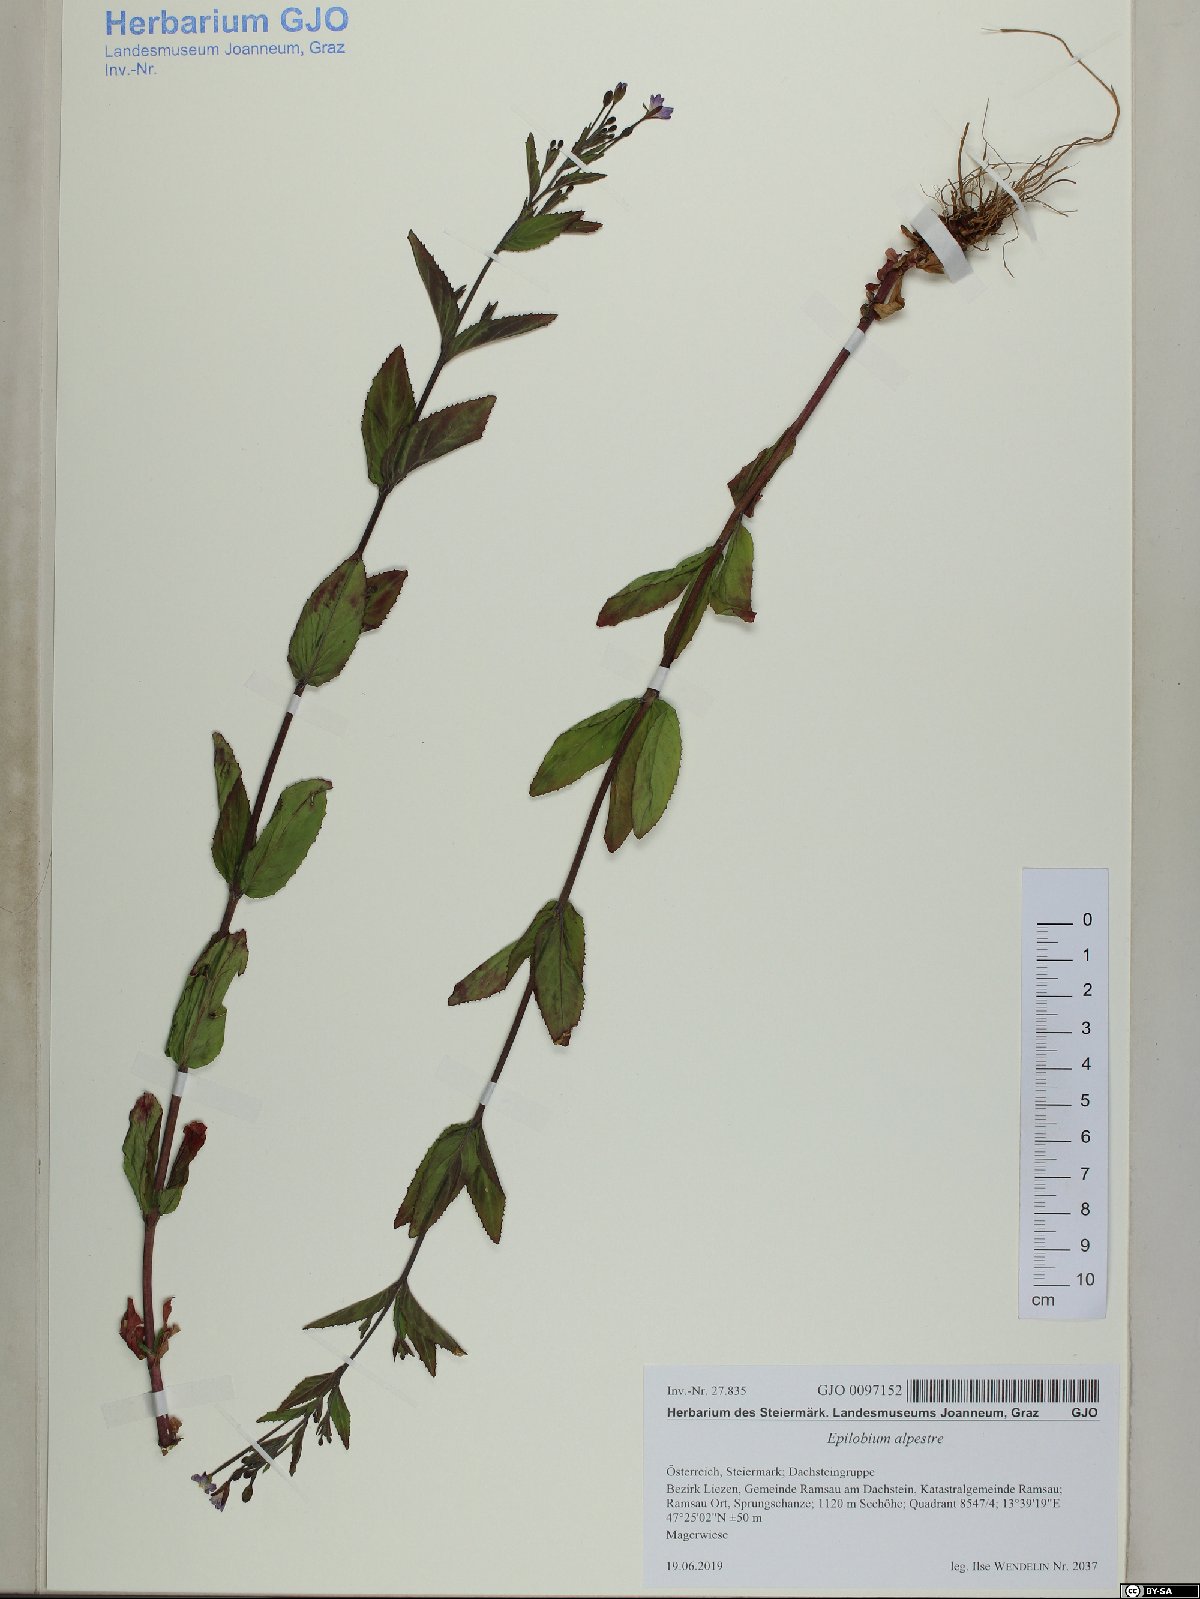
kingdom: Plantae
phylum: Tracheophyta
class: Magnoliopsida
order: Myrtales
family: Onagraceae
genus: Epilobium
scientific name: Epilobium alpestre
